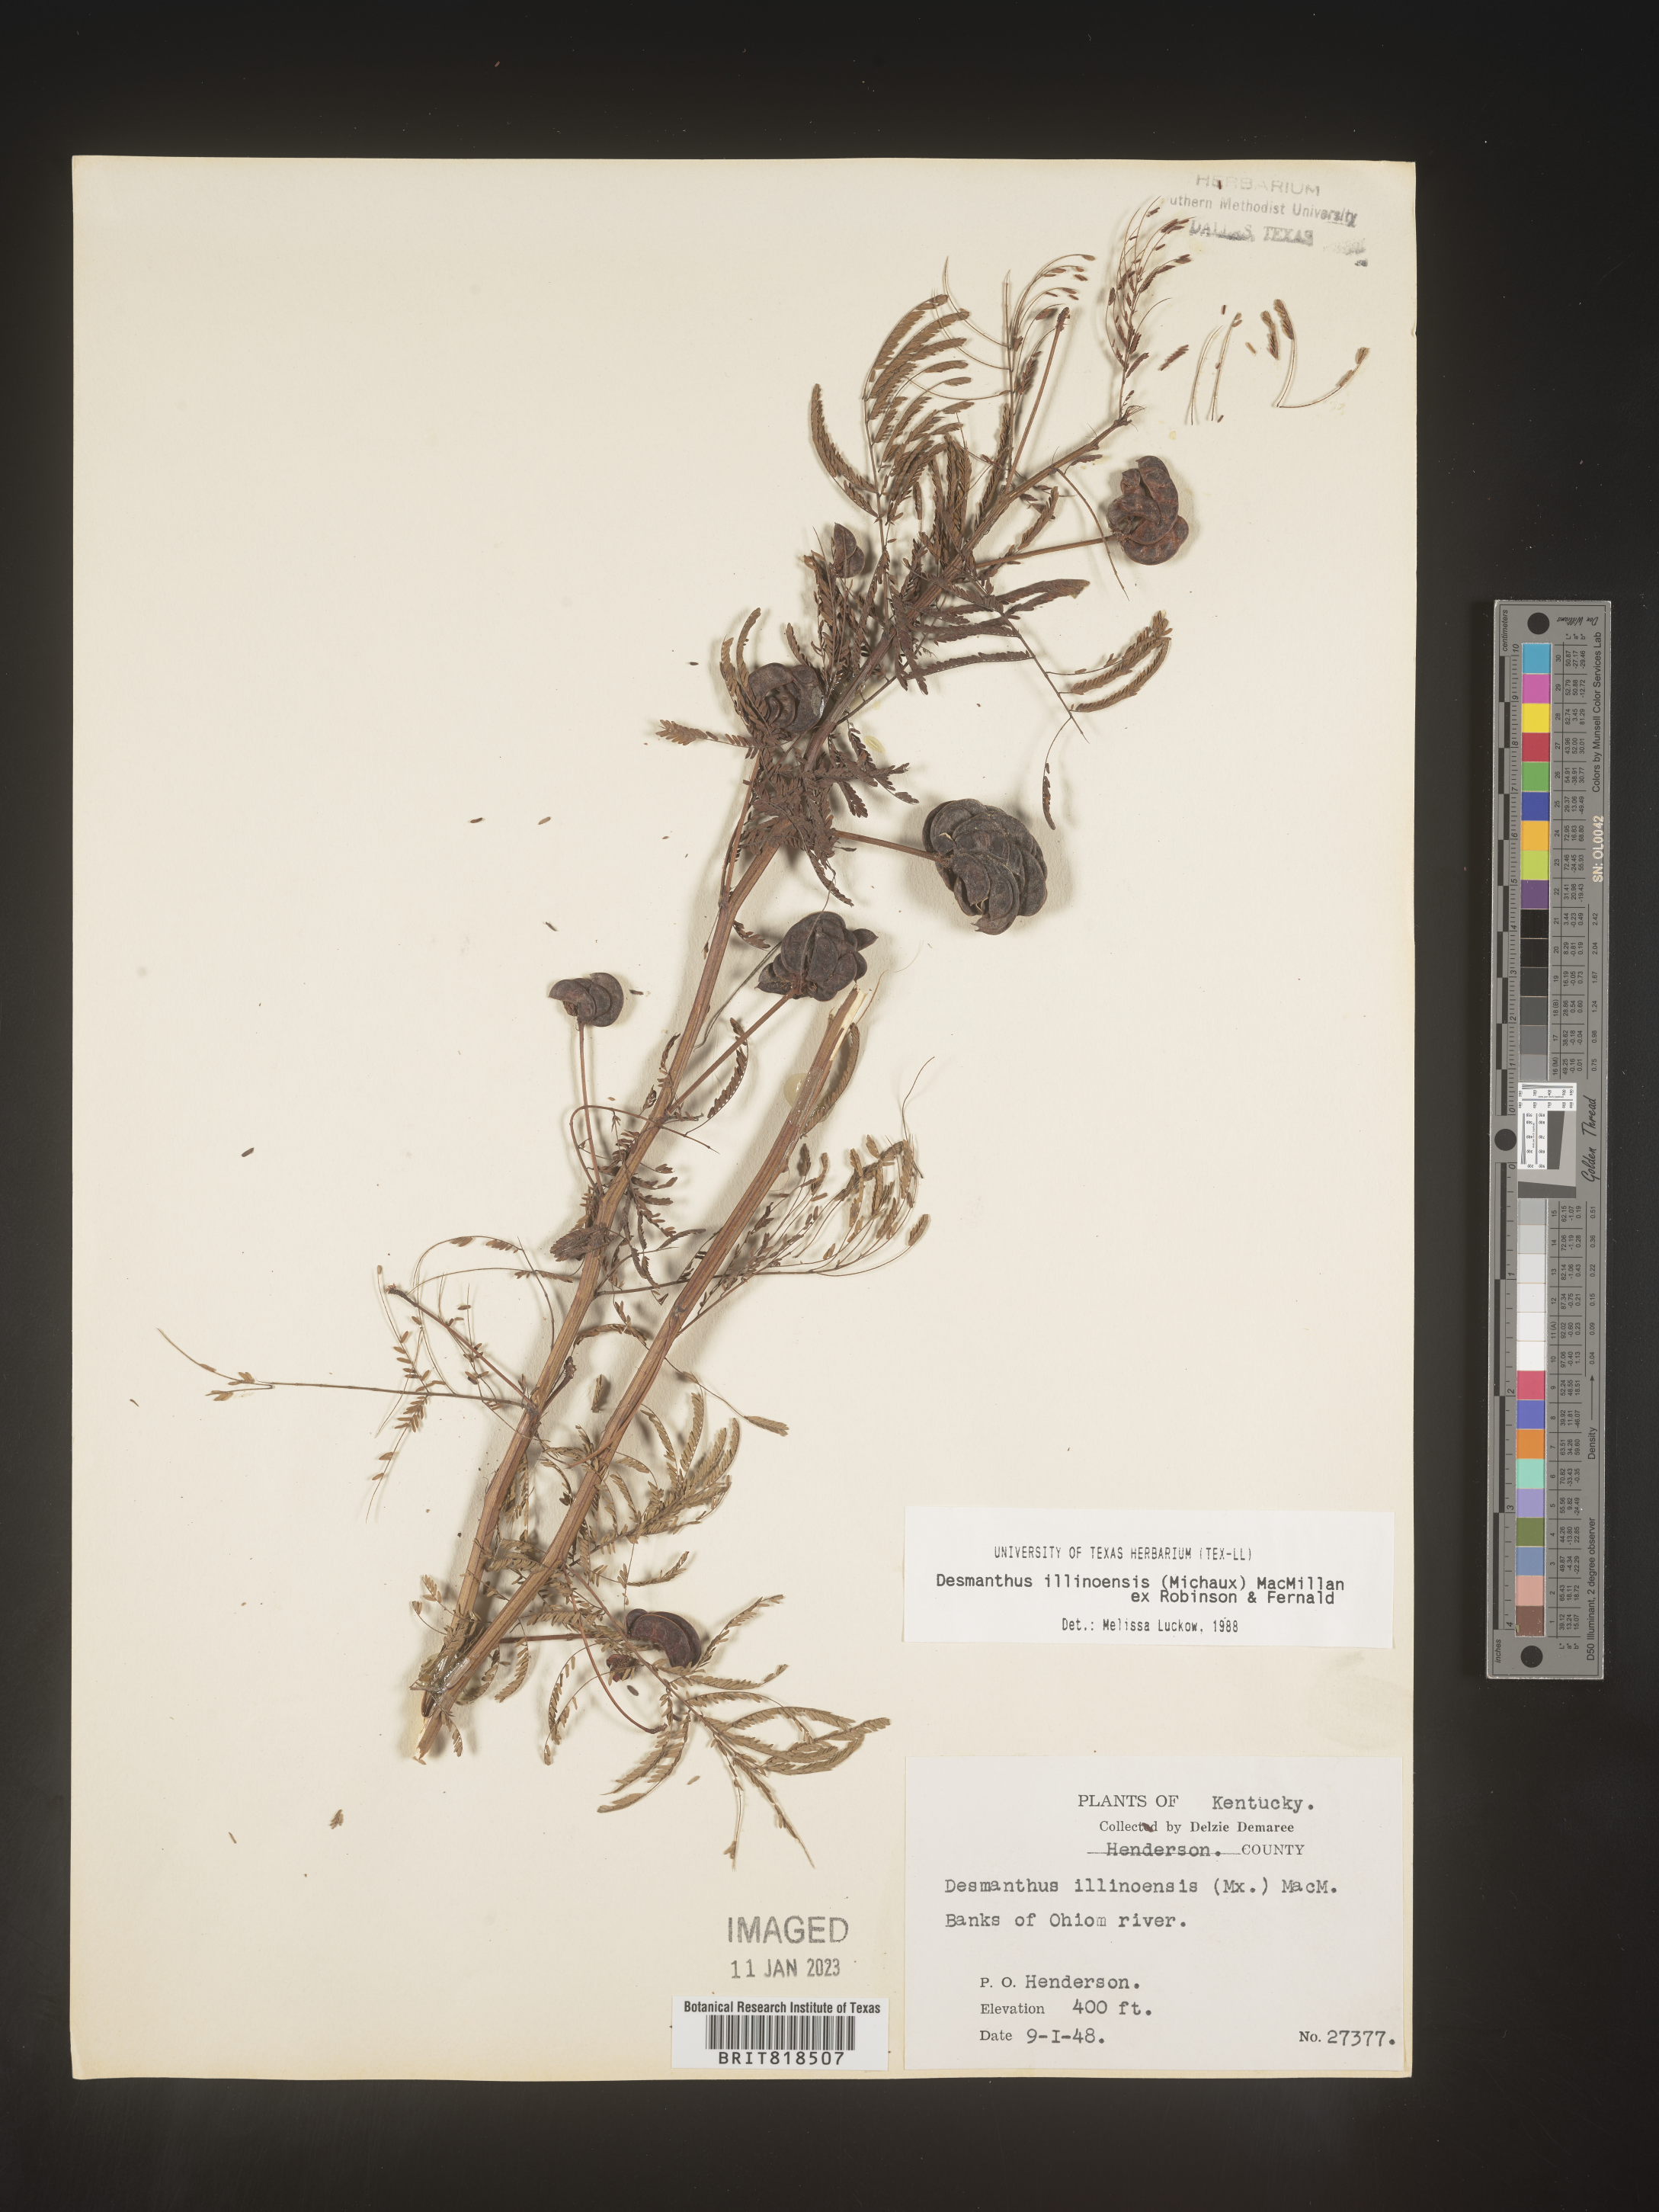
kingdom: Plantae
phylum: Tracheophyta
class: Magnoliopsida
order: Fabales
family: Fabaceae
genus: Desmanthus
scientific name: Desmanthus illinoensis
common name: Illinois bundle-flower
